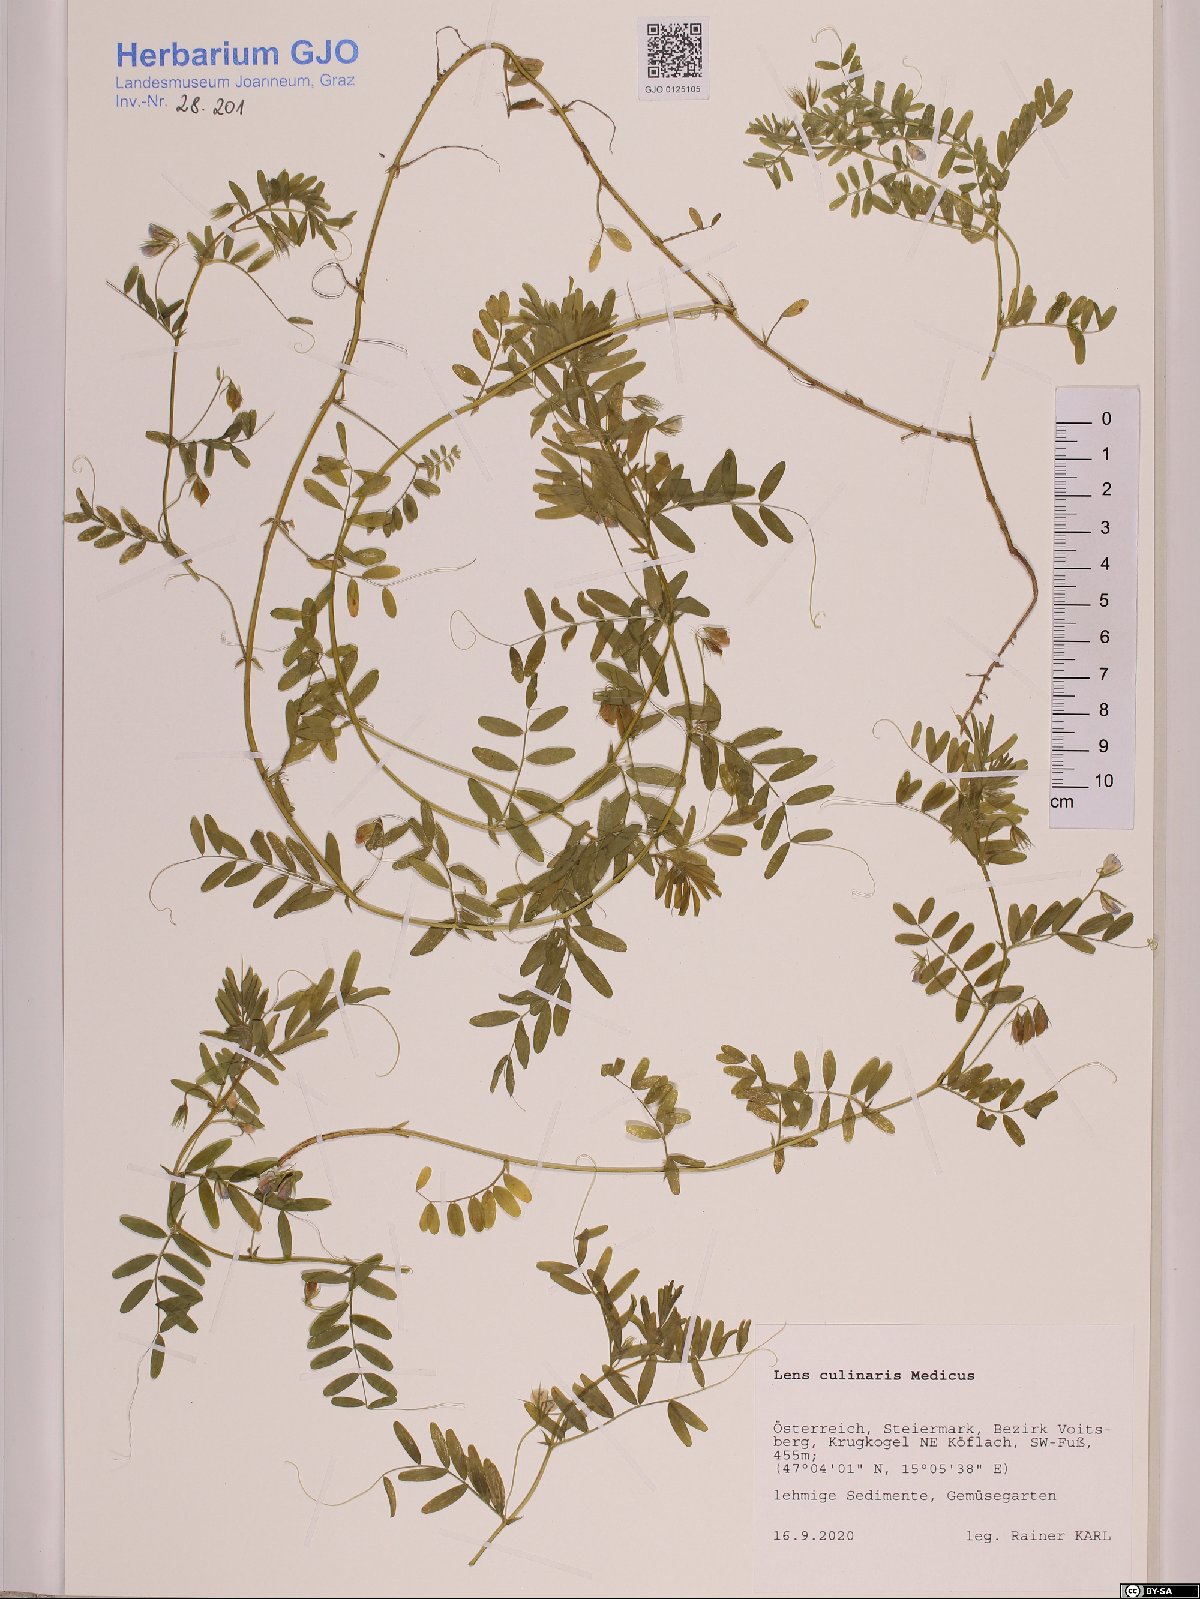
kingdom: Plantae
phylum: Tracheophyta
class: Magnoliopsida
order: Fabales
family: Fabaceae
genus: Vicia
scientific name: Vicia lens
